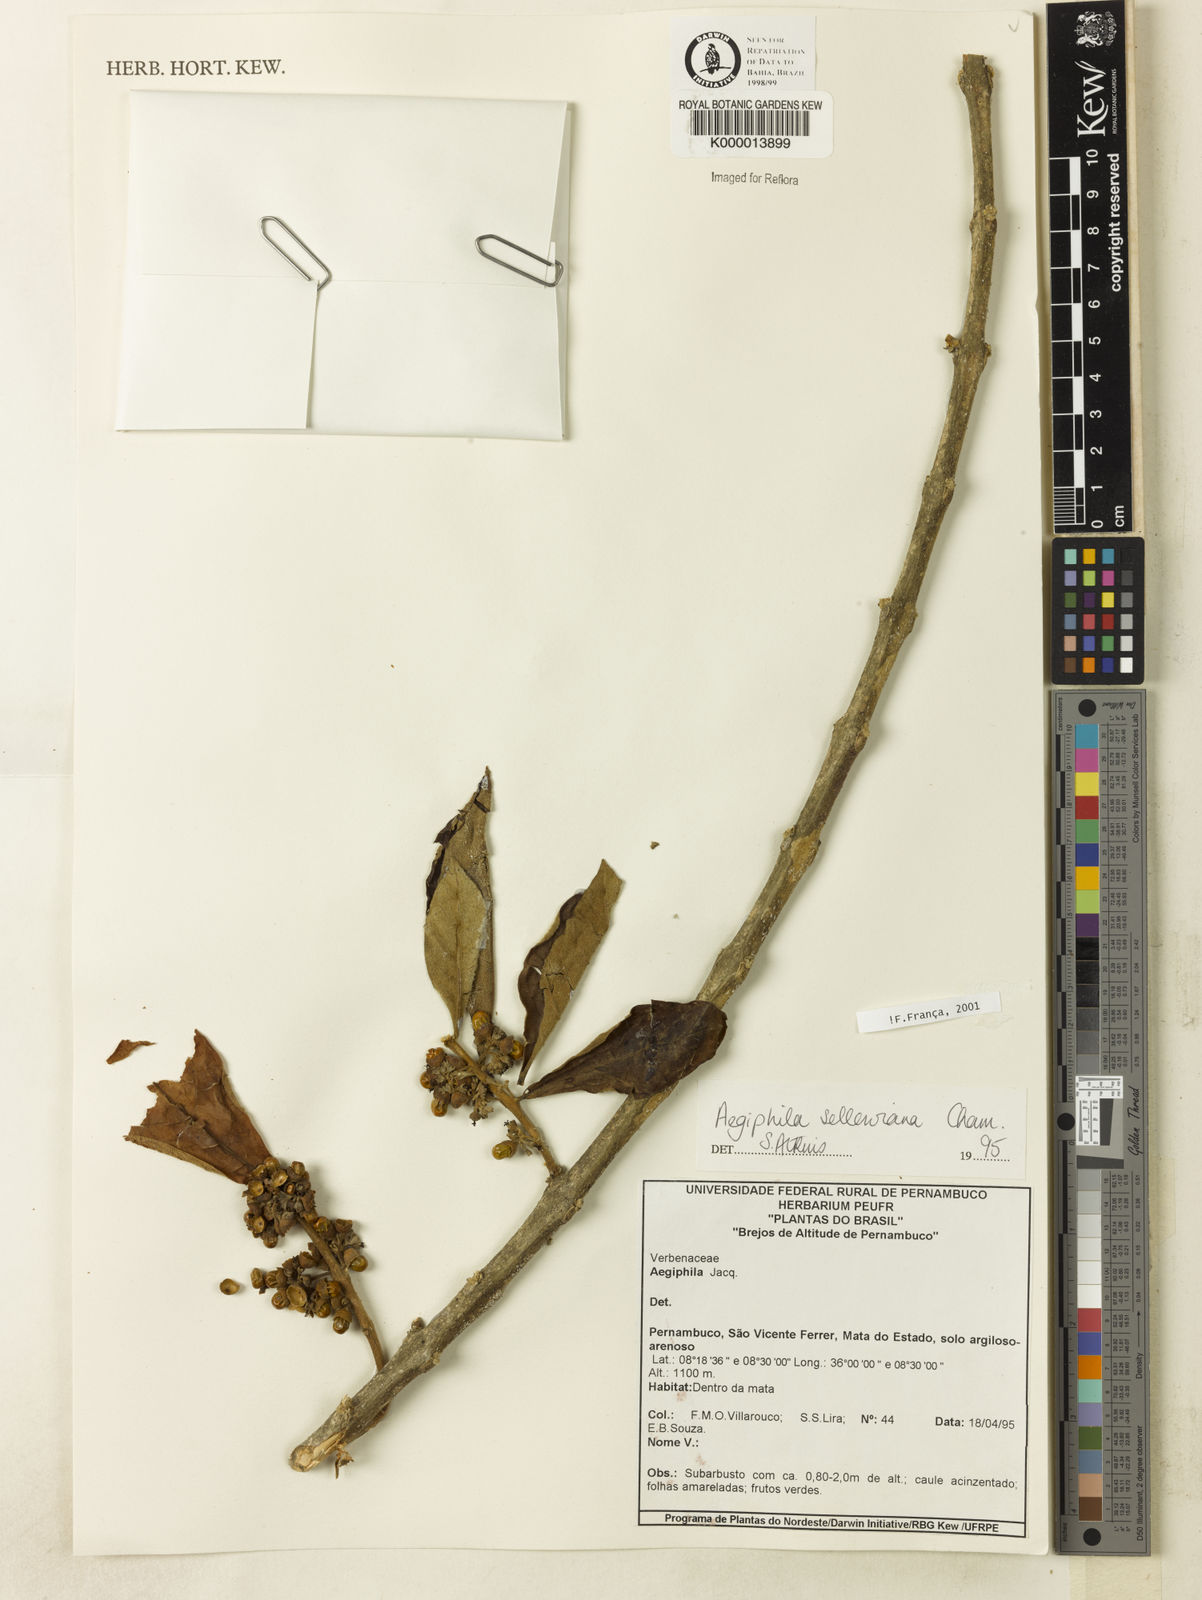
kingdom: Plantae
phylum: Tracheophyta
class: Magnoliopsida
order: Lamiales
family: Lamiaceae
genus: Aegiphila
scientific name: Aegiphila verticillata
